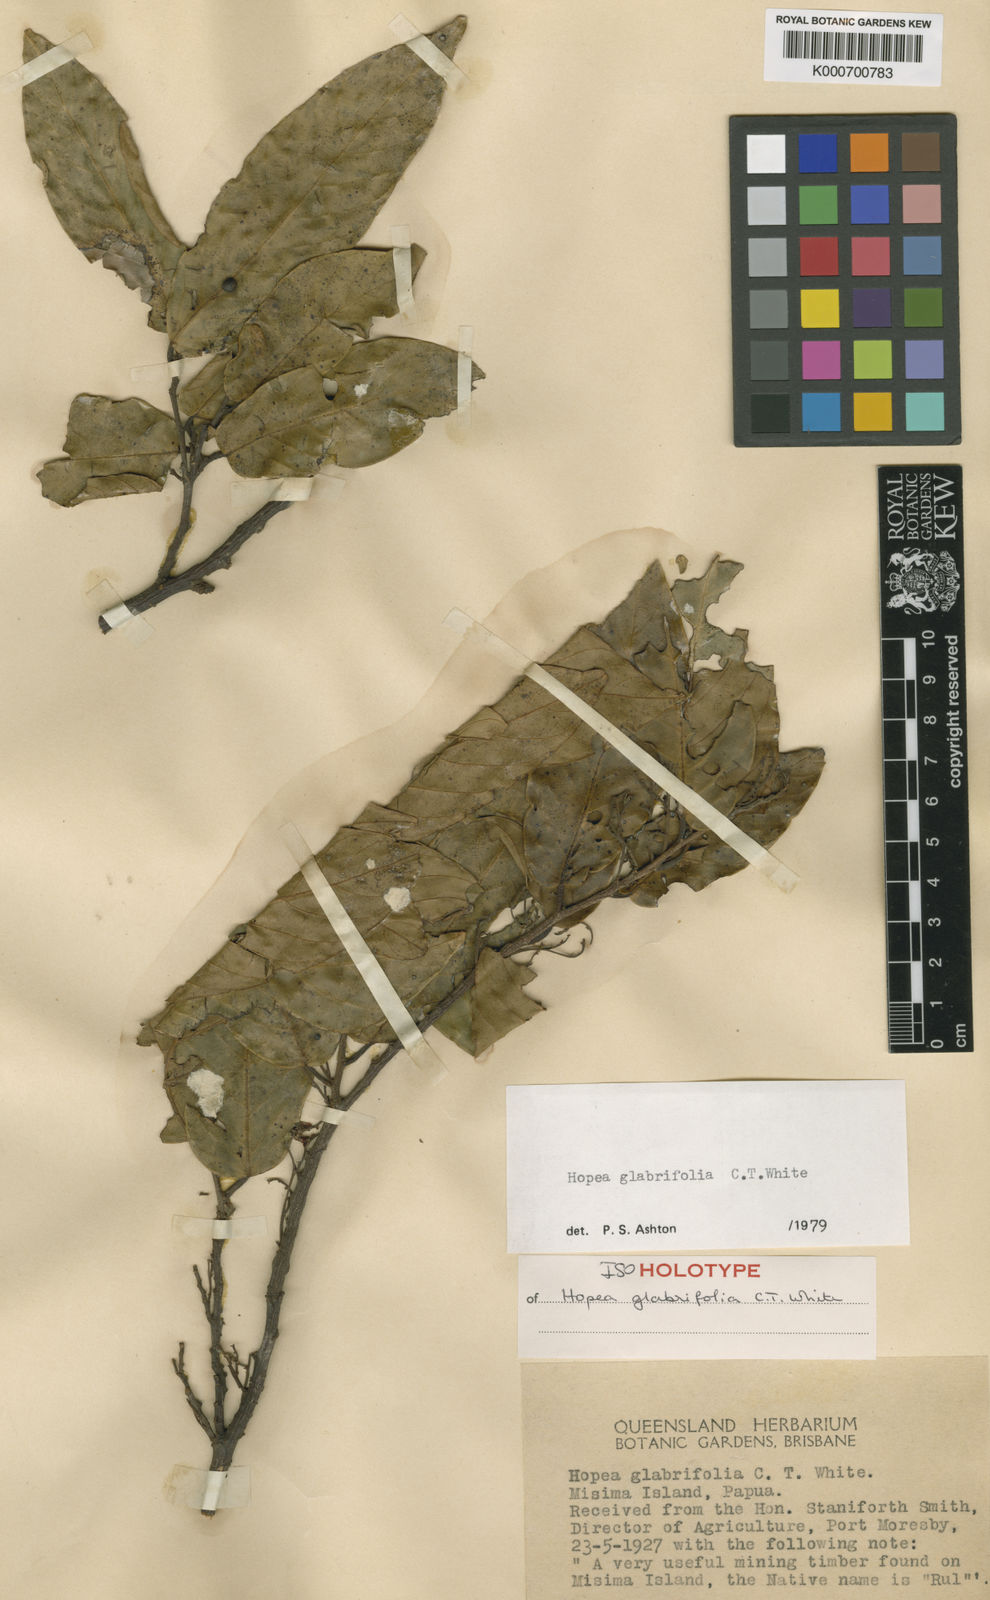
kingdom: Plantae
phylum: Tracheophyta
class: Magnoliopsida
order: Malvales
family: Dipterocarpaceae
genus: Hopea
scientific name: Hopea glabrifolia
